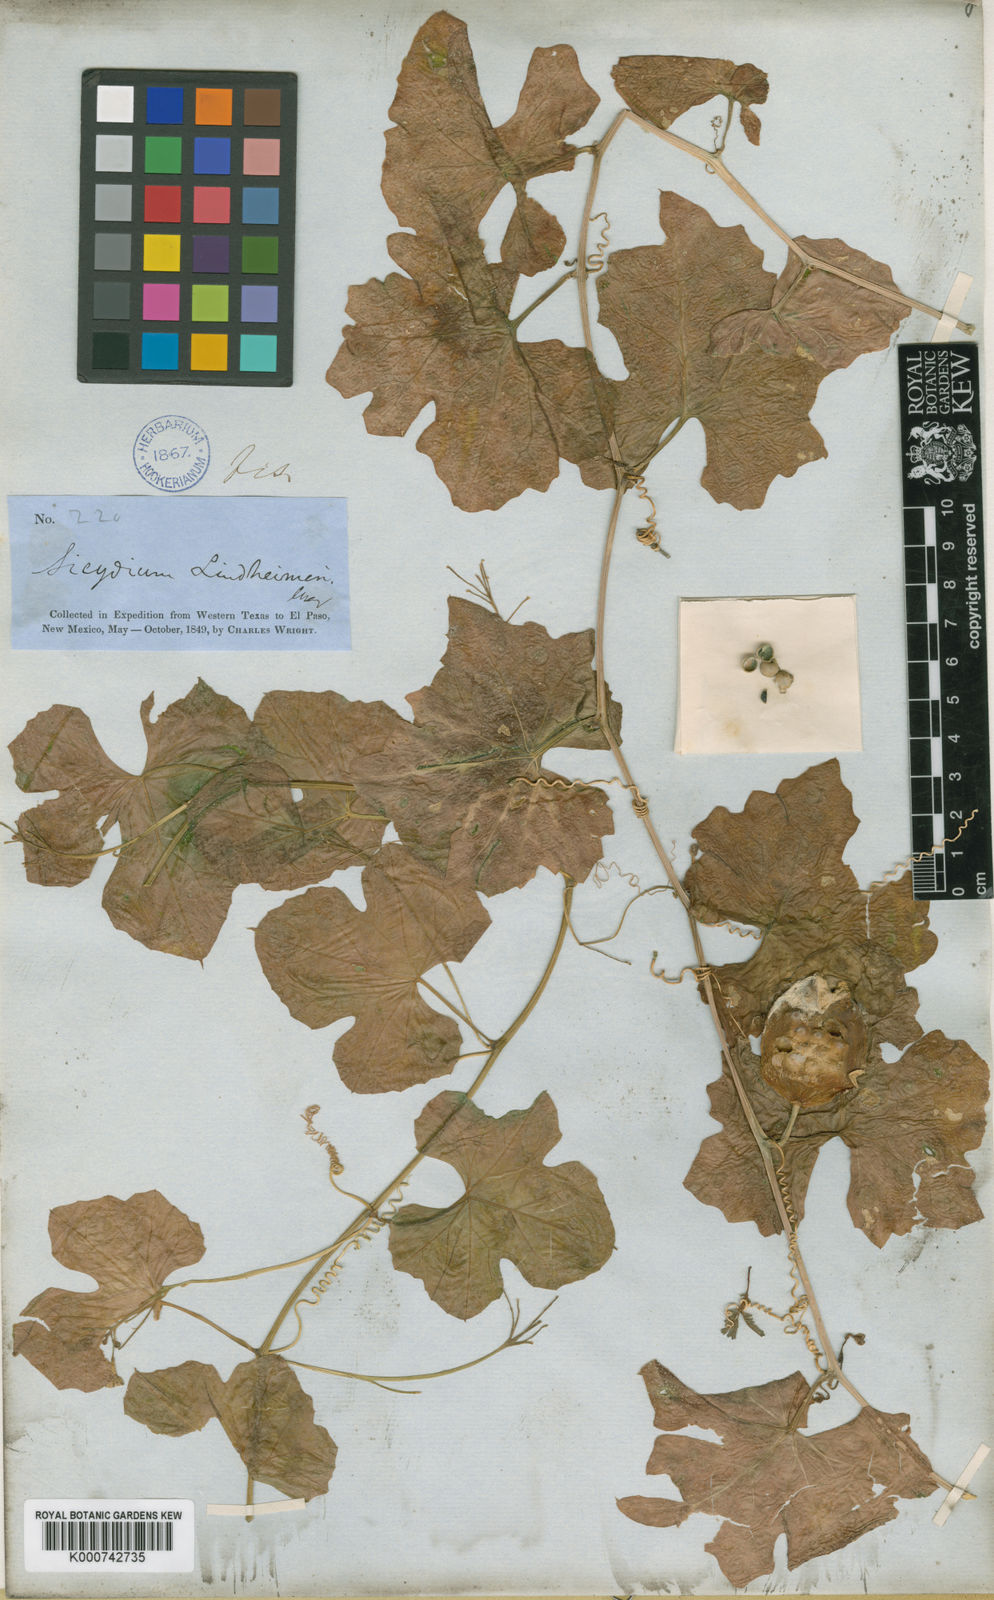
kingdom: Plantae
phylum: Tracheophyta
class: Magnoliopsida
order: Cucurbitales
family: Cucurbitaceae
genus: Ibervillea
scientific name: Ibervillea lindheimeri
